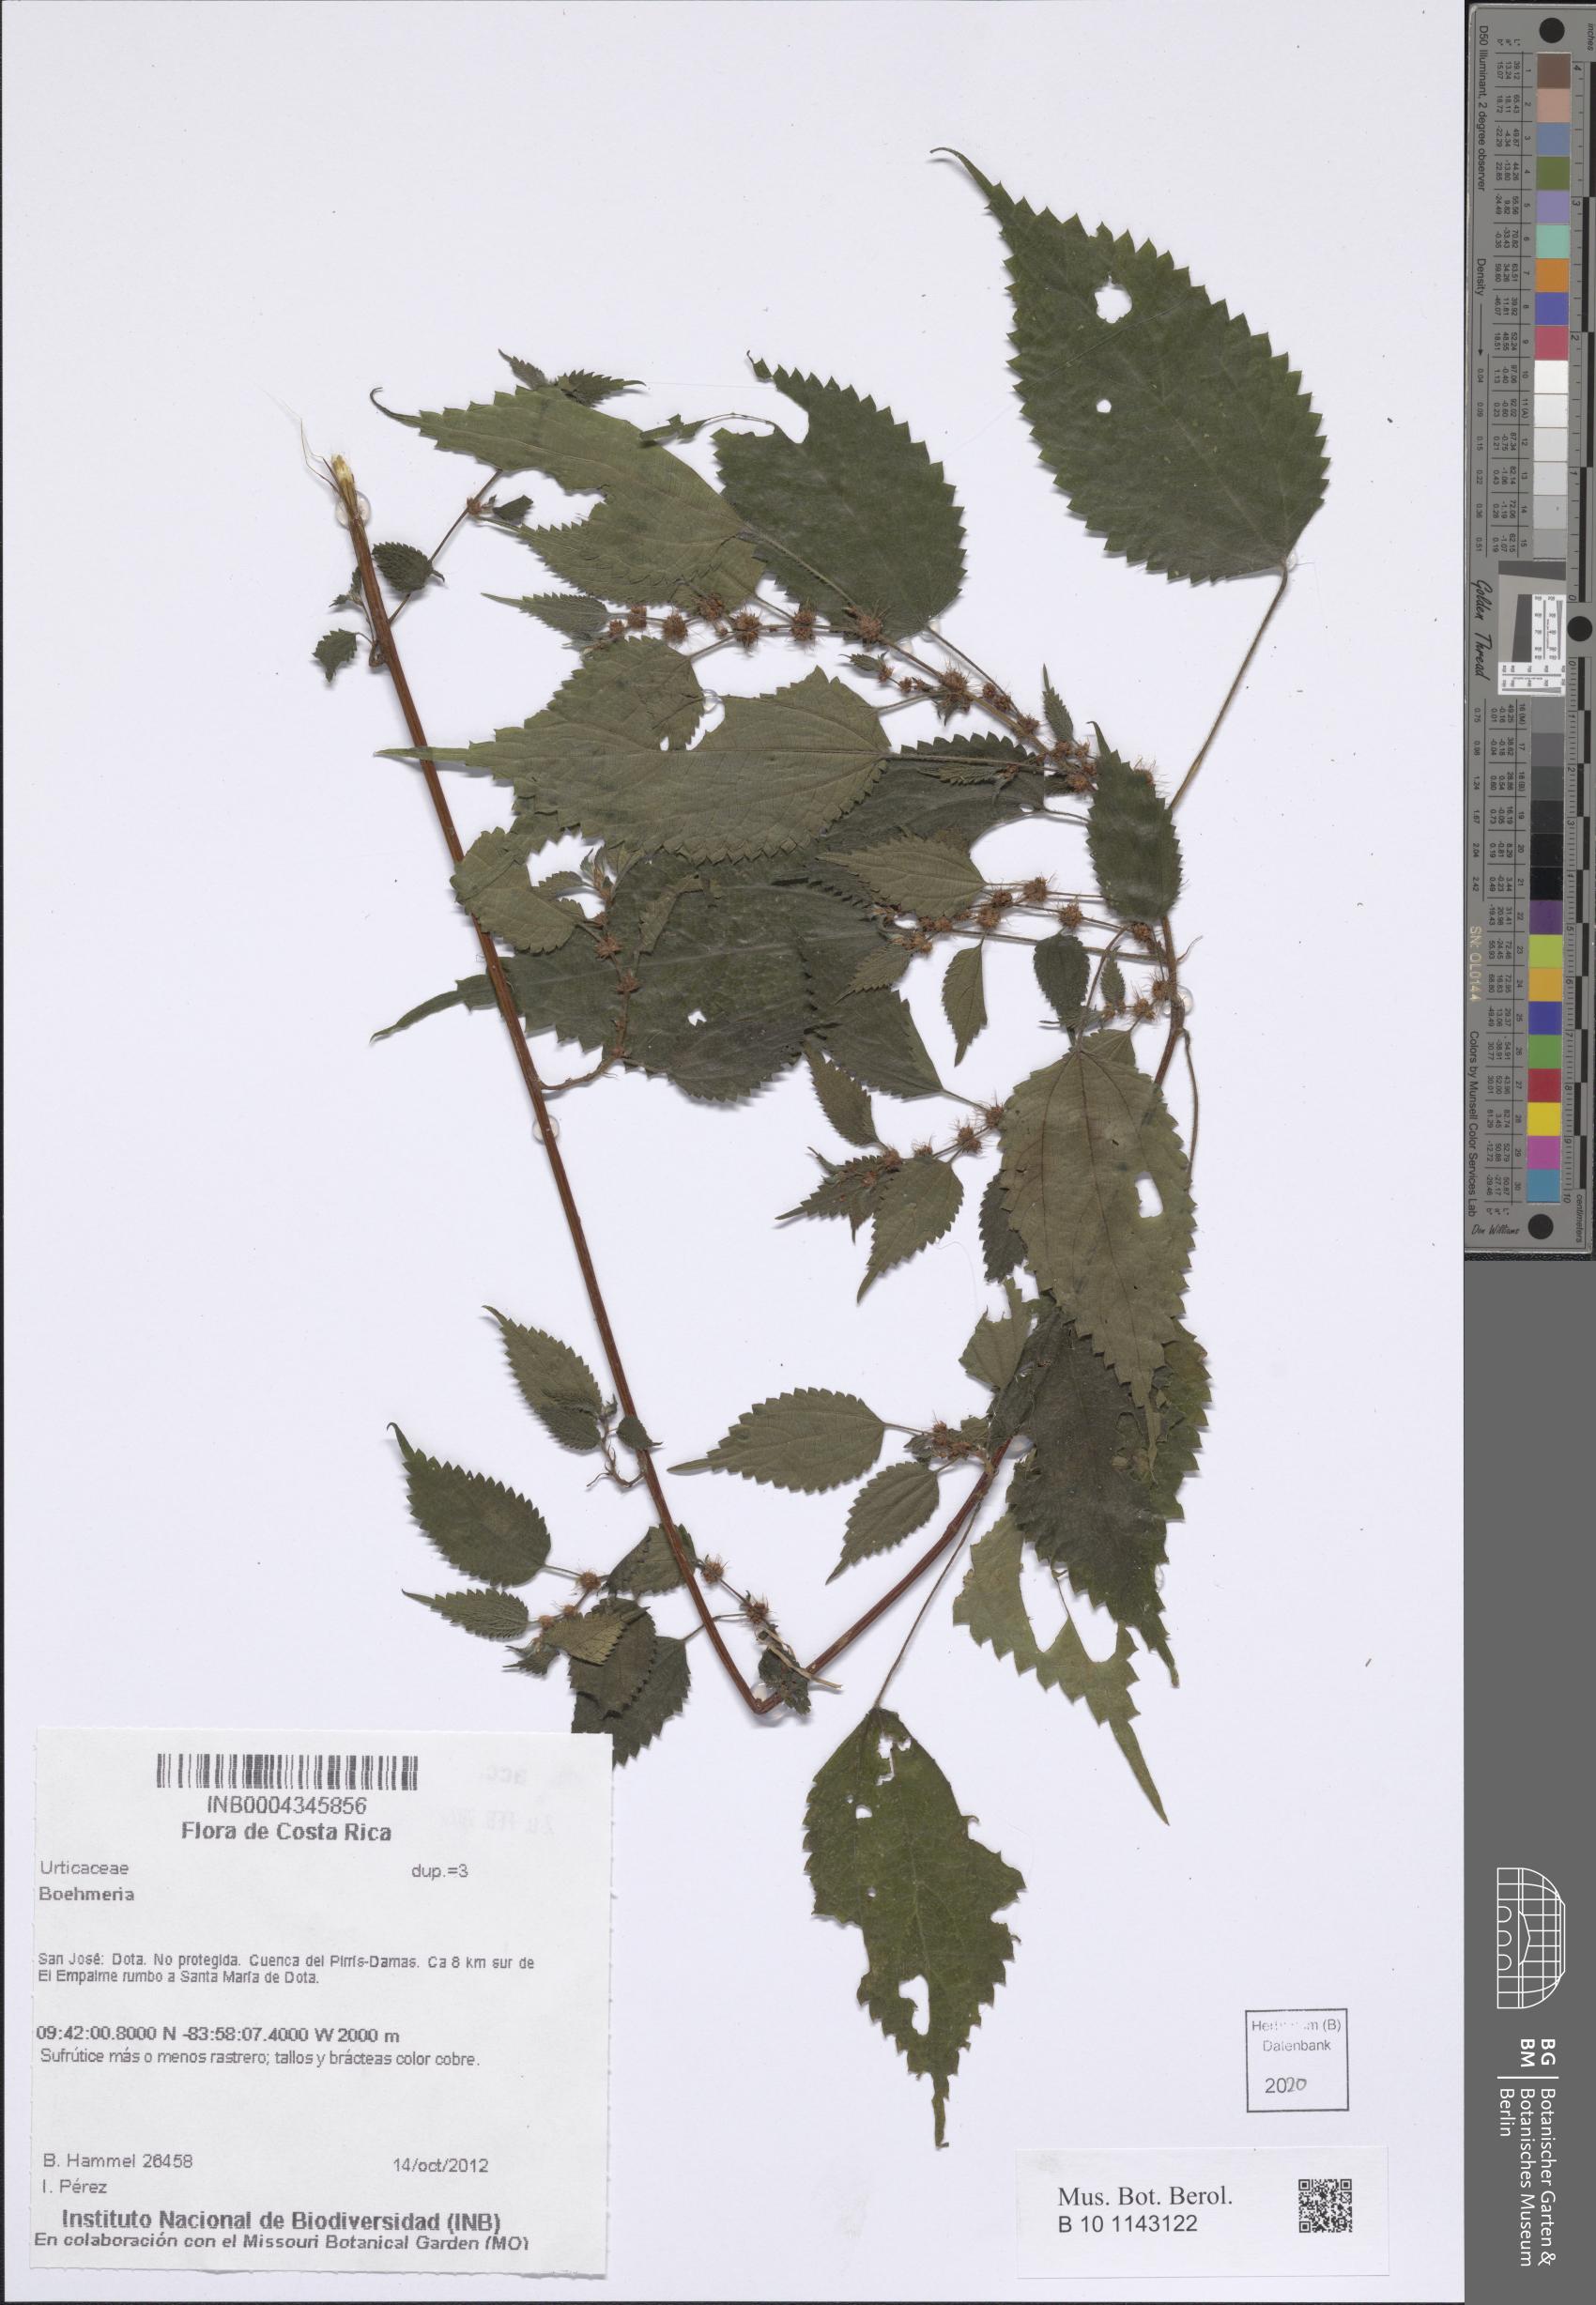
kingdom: Plantae
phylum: Tracheophyta
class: Magnoliopsida
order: Rosales
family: Urticaceae
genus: Boehmeria
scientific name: Boehmeria
